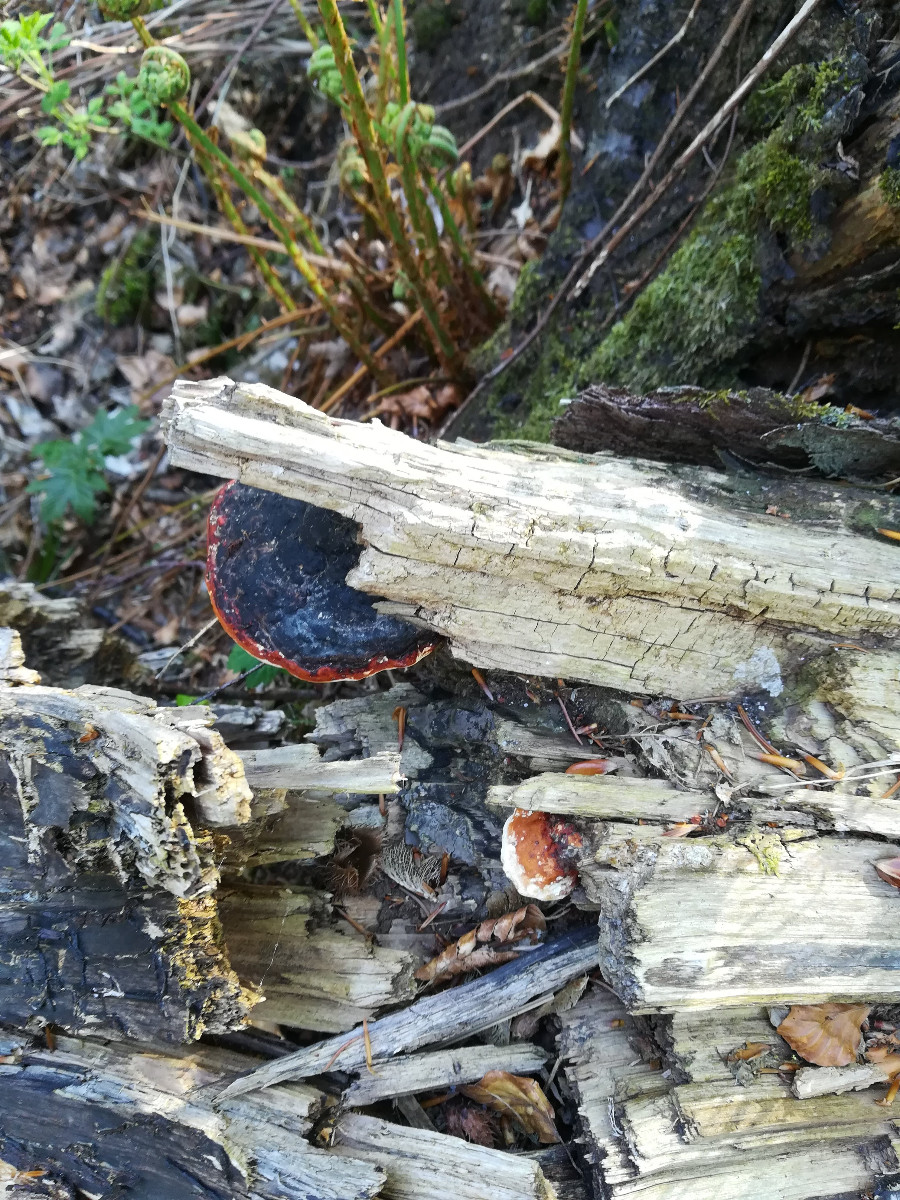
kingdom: Fungi
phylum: Basidiomycota
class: Agaricomycetes
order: Polyporales
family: Fomitopsidaceae
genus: Fomitopsis
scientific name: Fomitopsis pinicola
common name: randbæltet hovporesvamp
